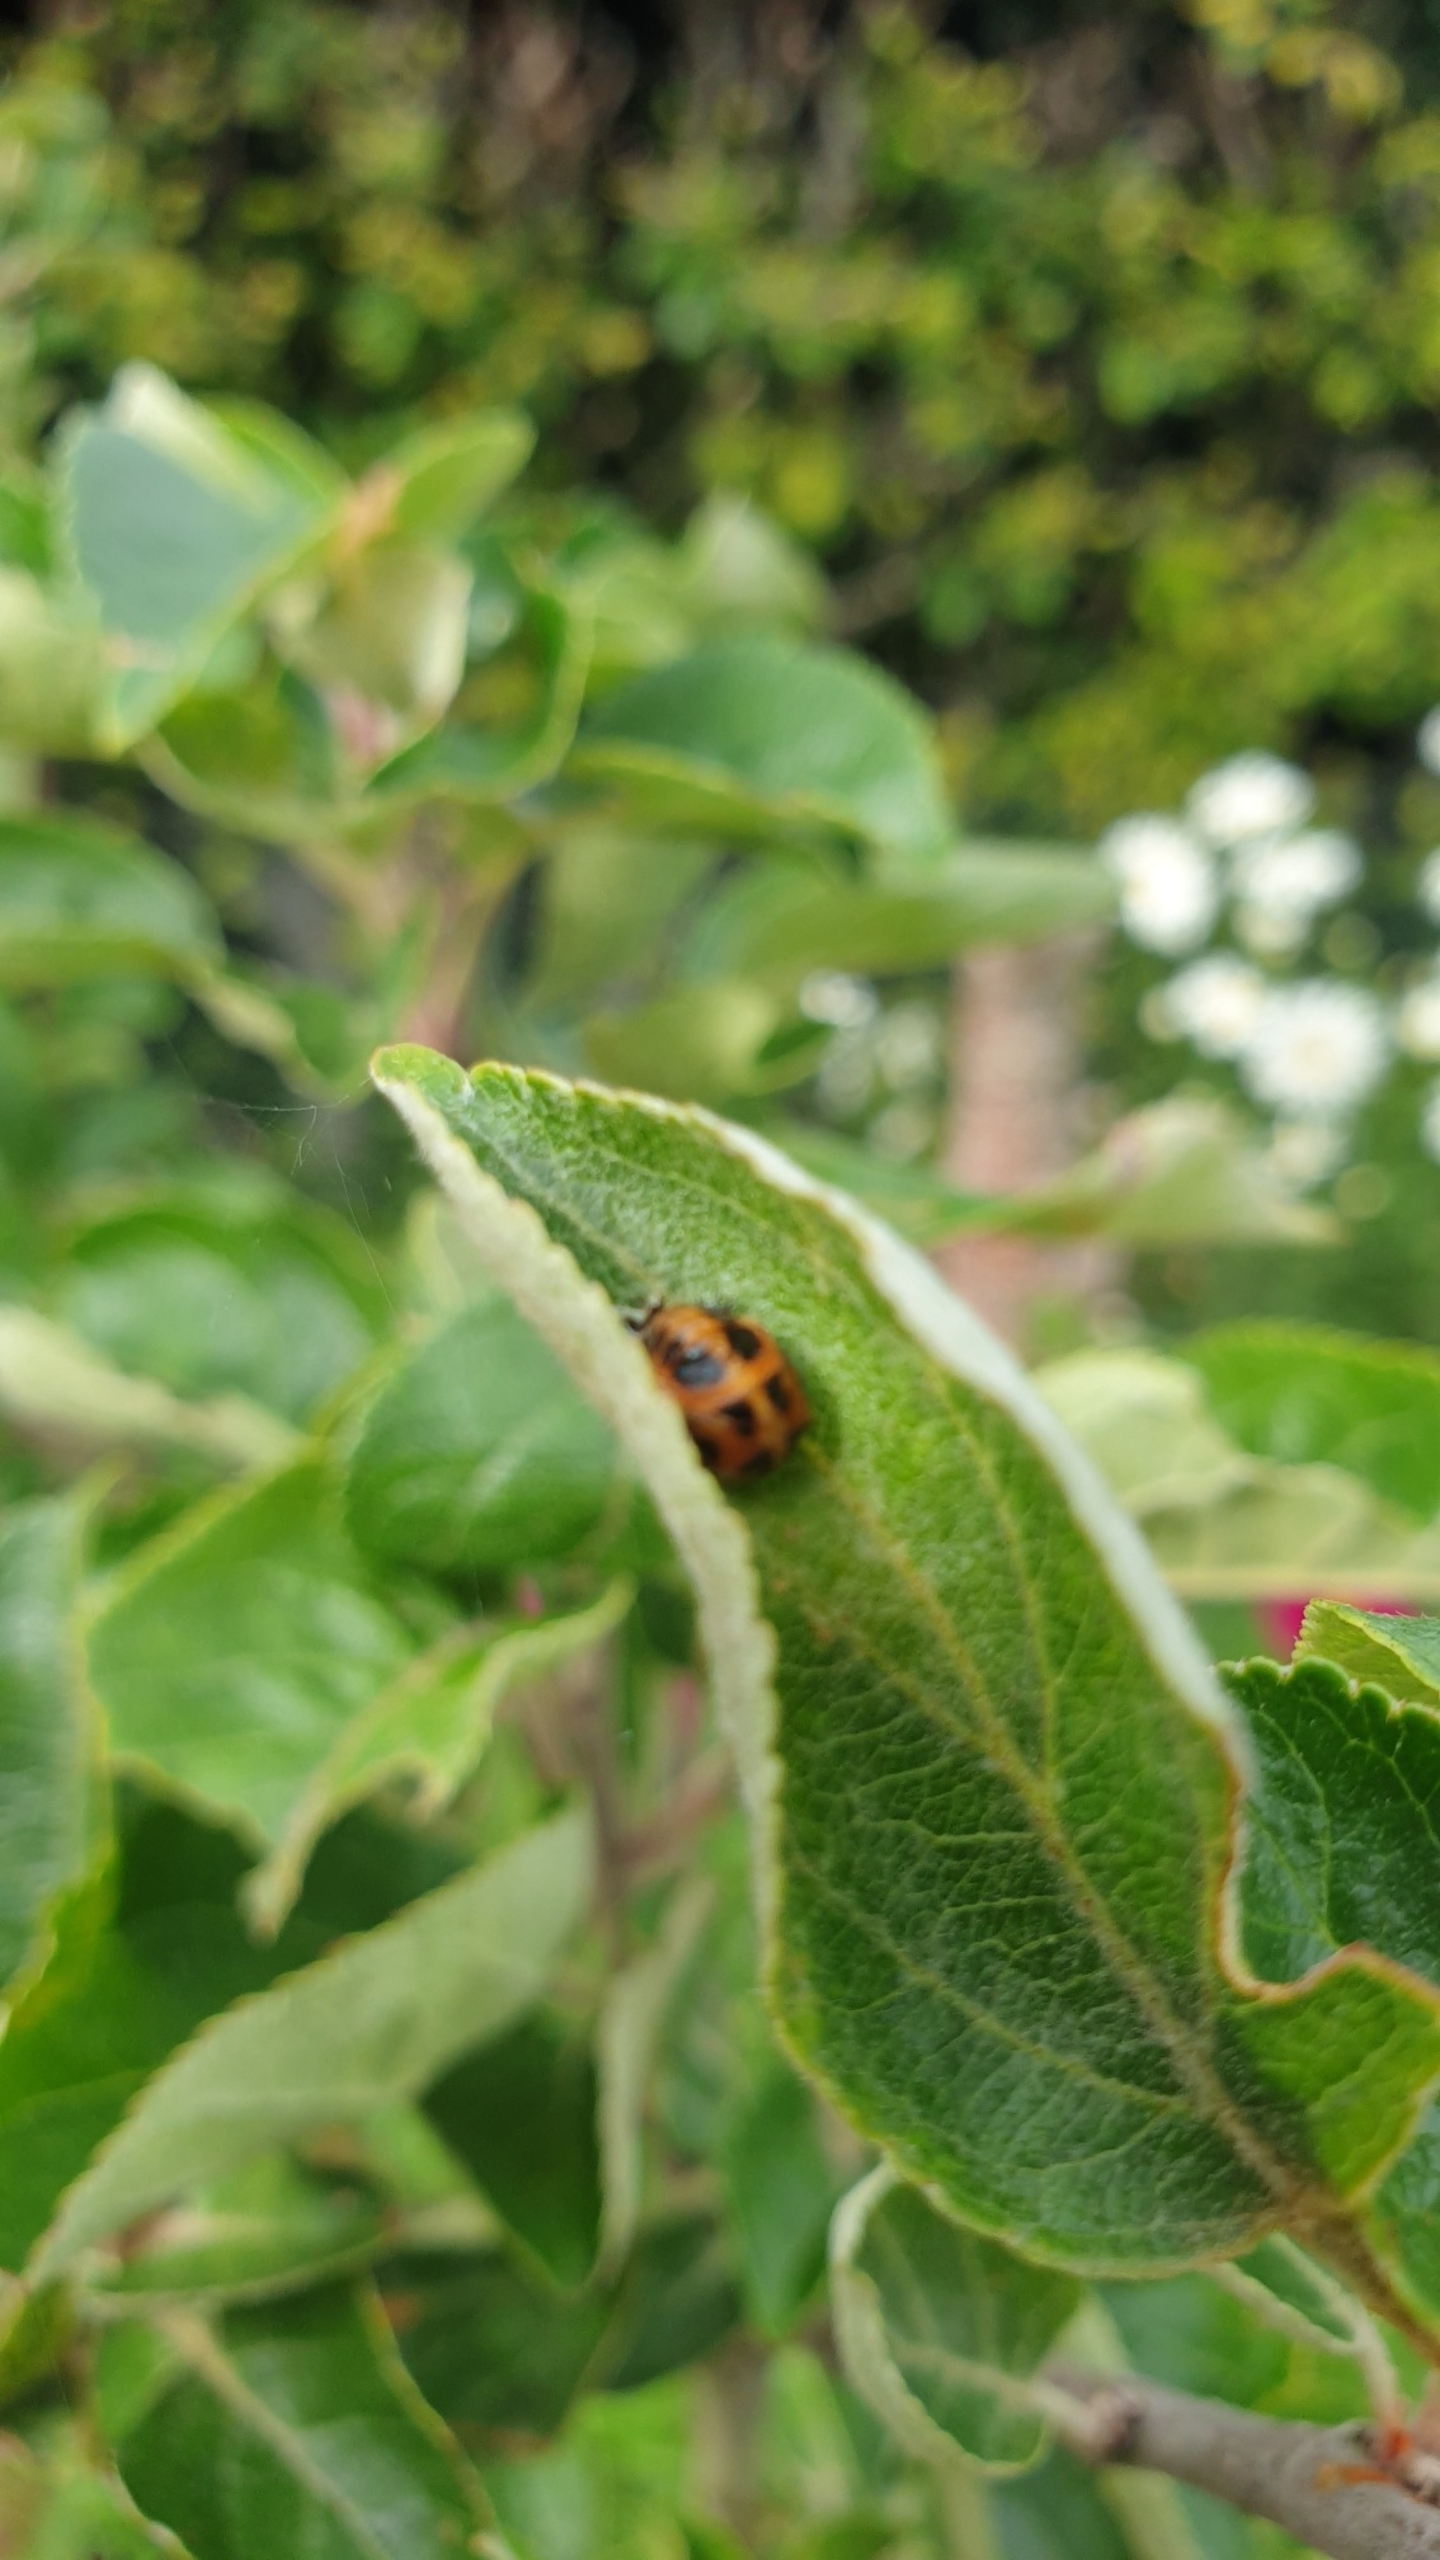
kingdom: Animalia
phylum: Arthropoda
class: Insecta
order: Coleoptera
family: Coccinellidae
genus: Harmonia
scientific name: Harmonia axyridis
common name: Harlekinmariehøne
